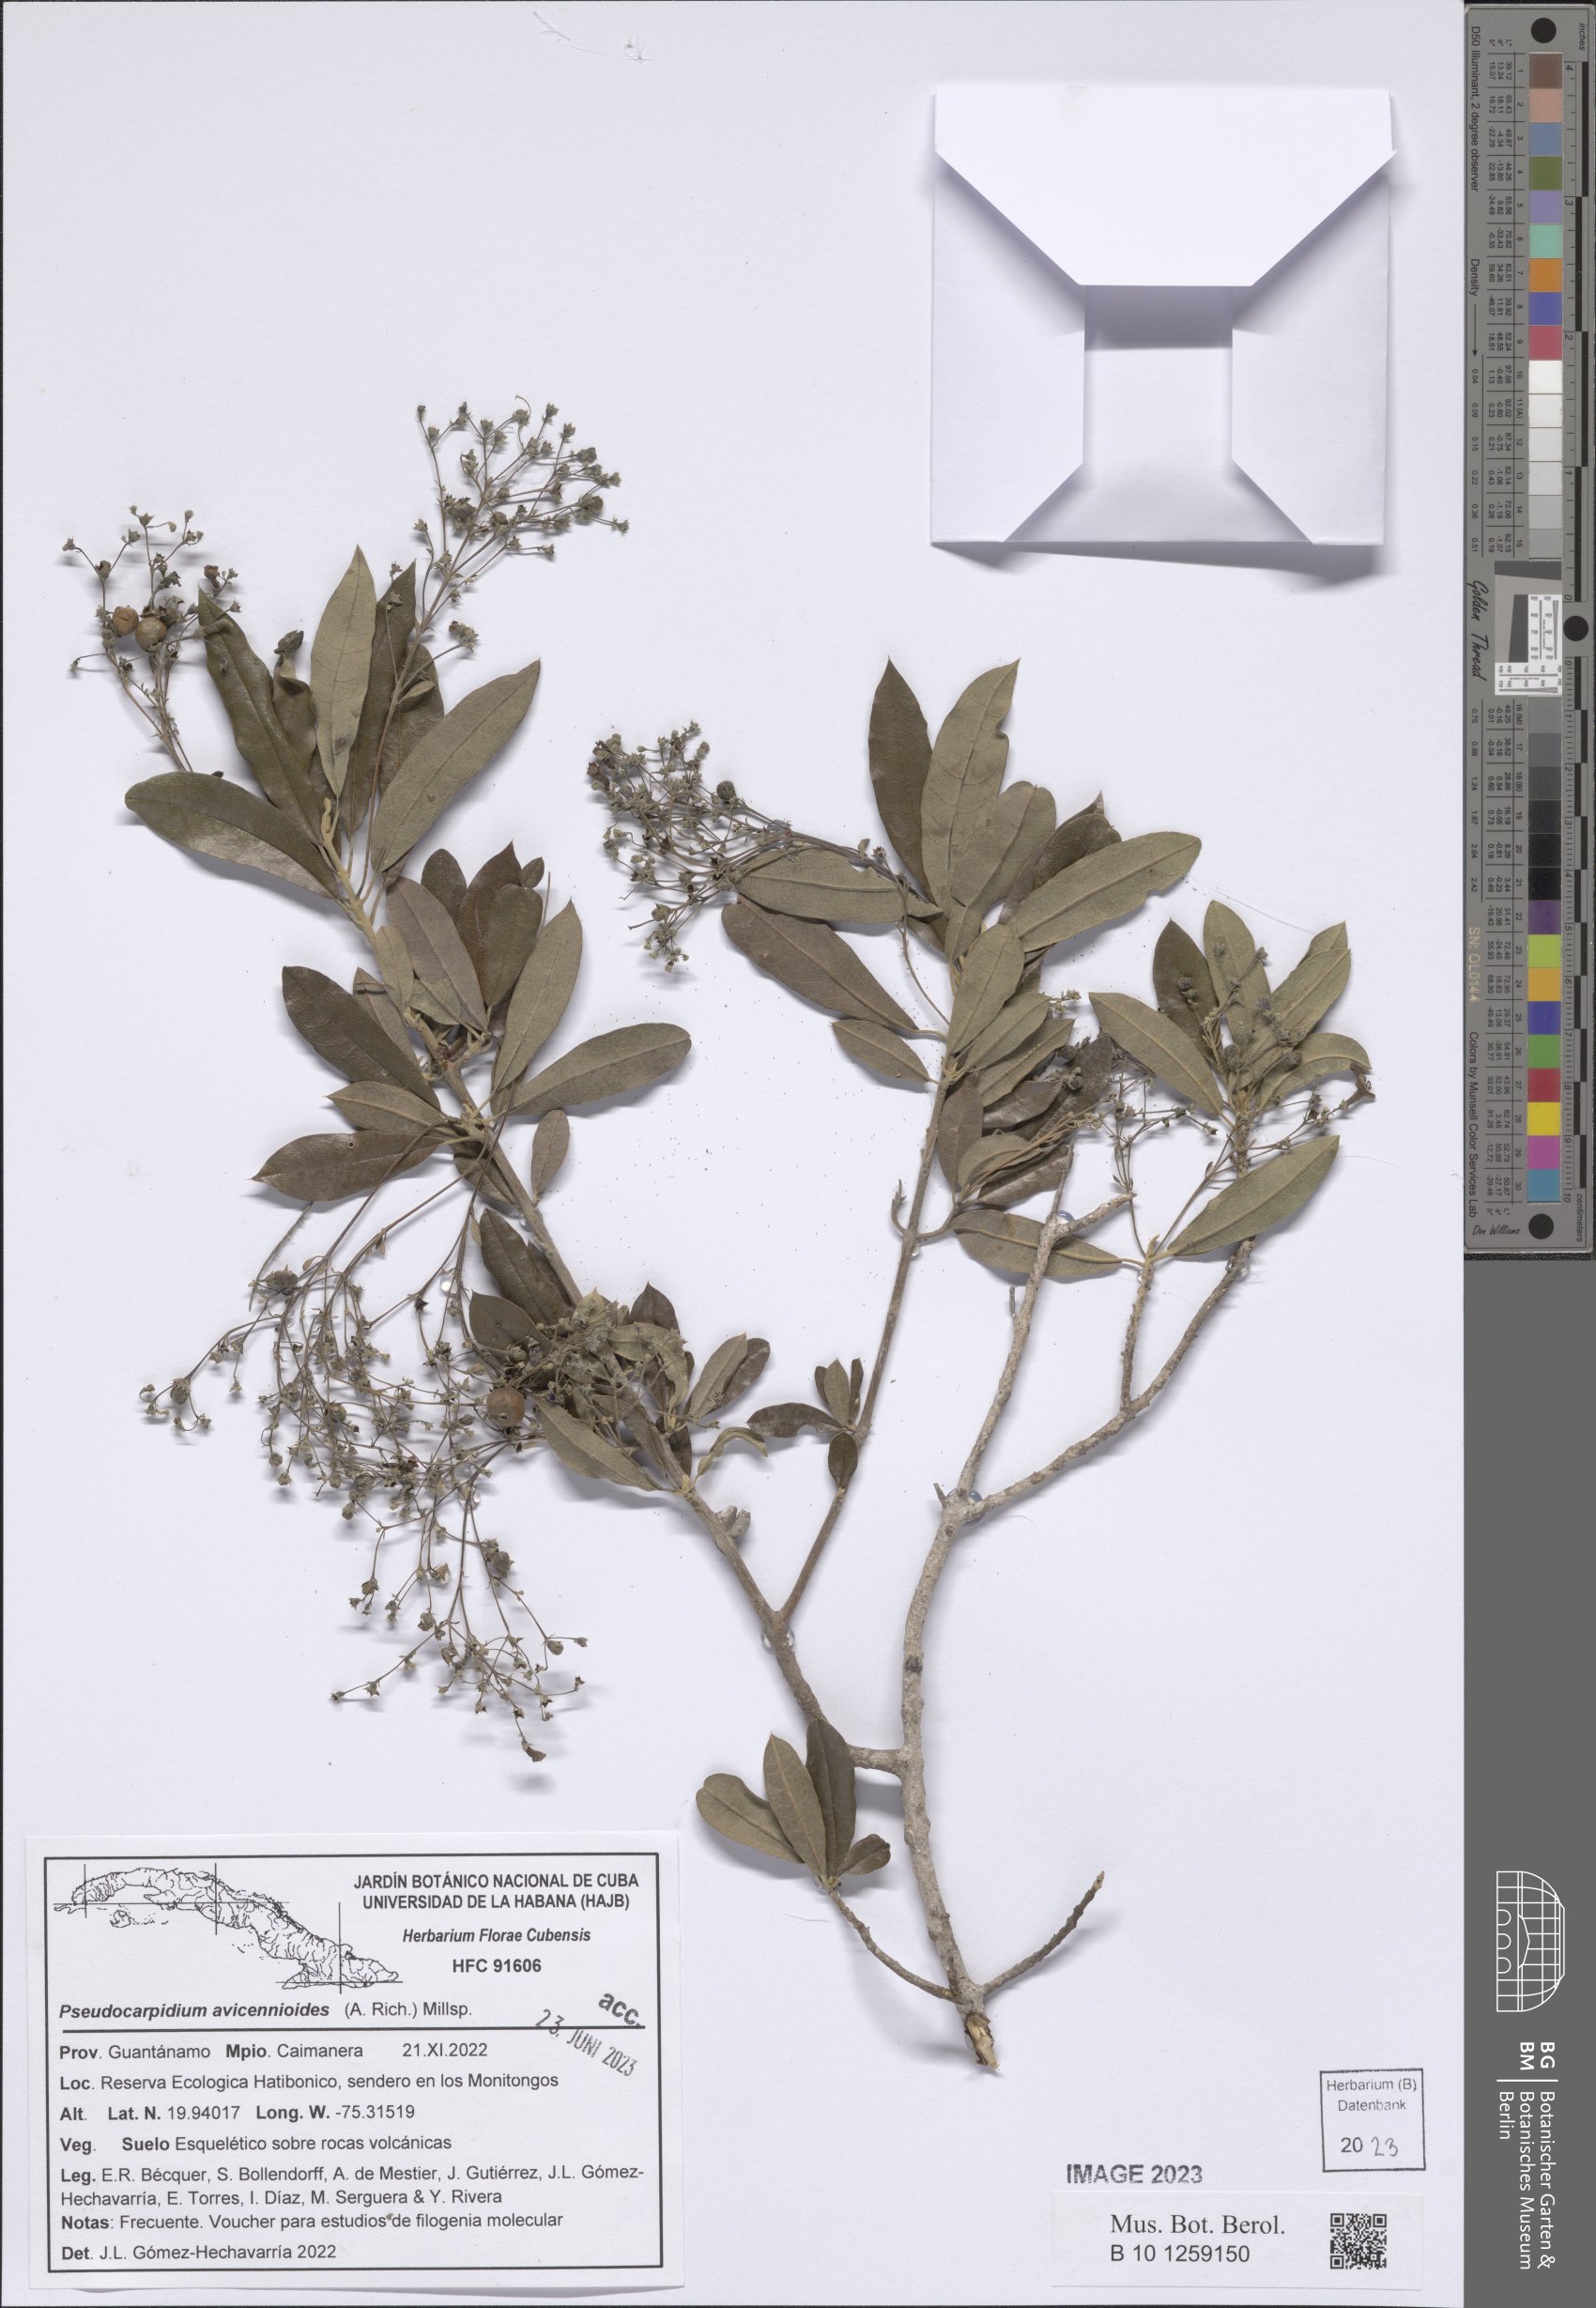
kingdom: Plantae
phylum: Tracheophyta
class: Magnoliopsida
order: Lamiales
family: Lamiaceae
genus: Pseudocarpidium
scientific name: Pseudocarpidium avicennioides
